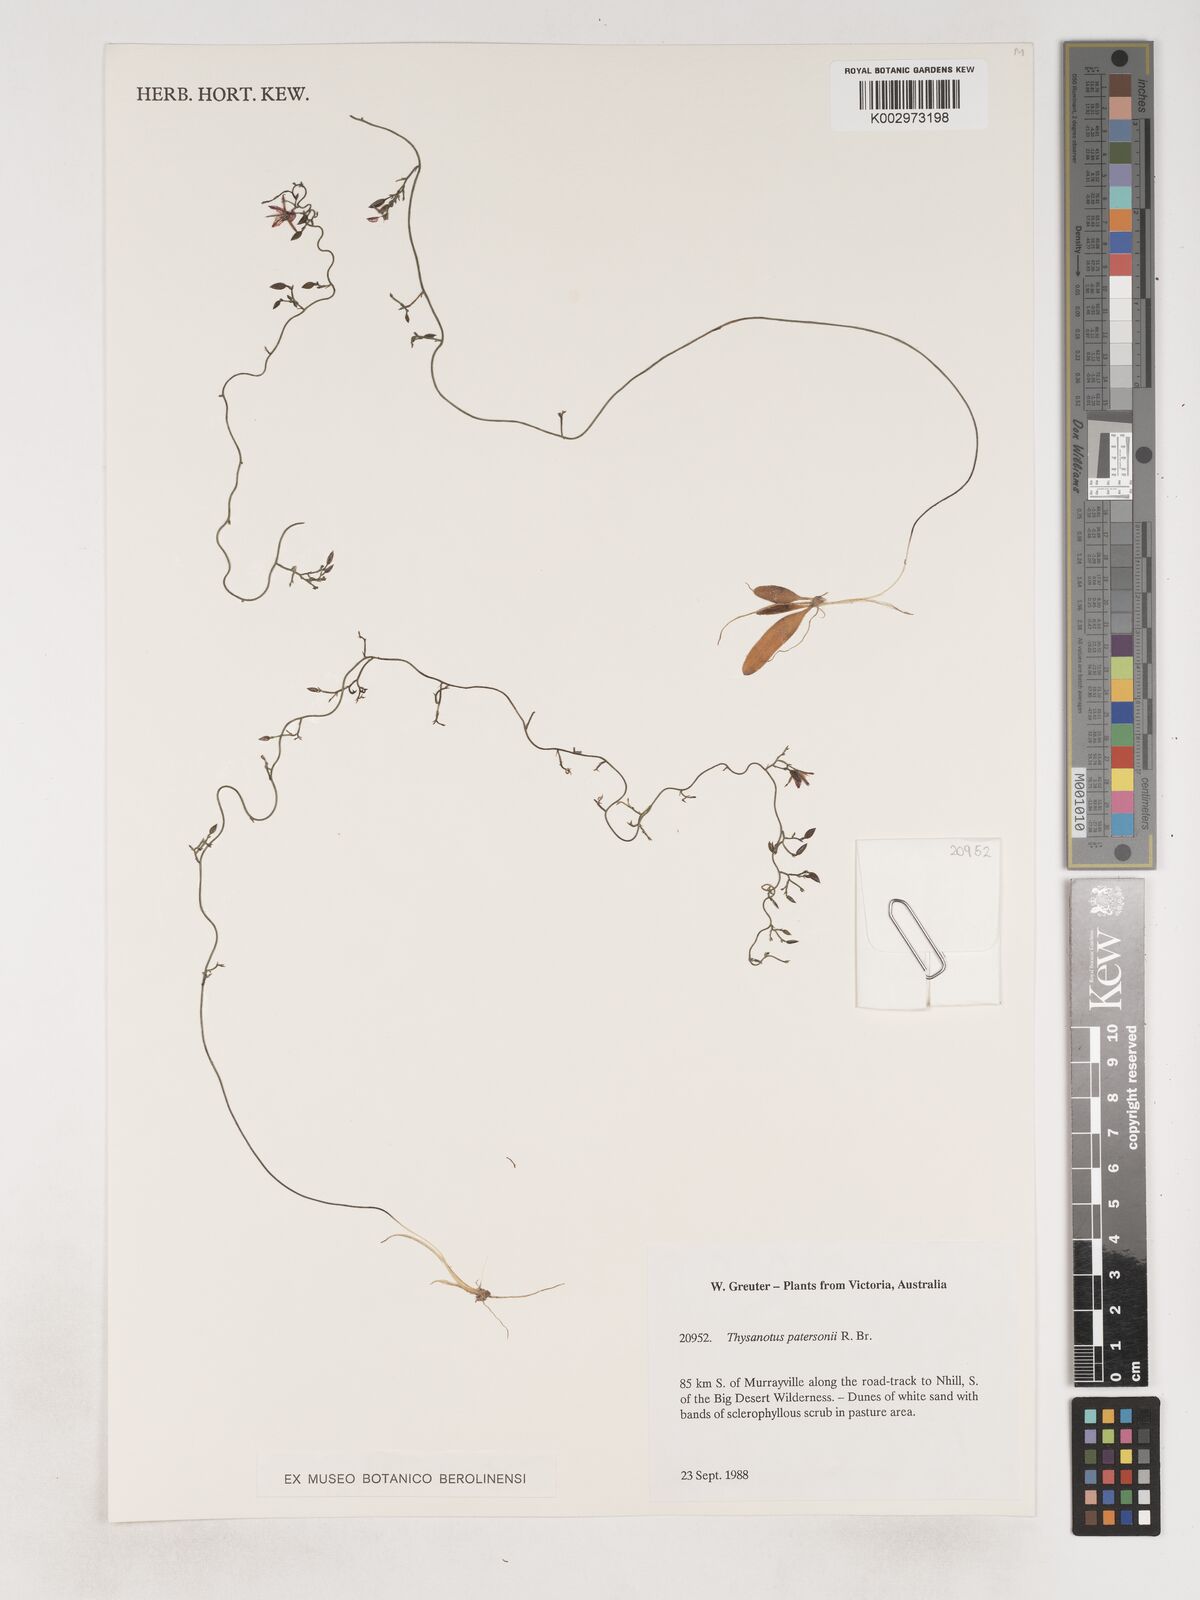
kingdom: Plantae
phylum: Tracheophyta
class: Liliopsida
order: Asparagales
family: Asparagaceae
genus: Thysanotus
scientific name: Thysanotus patersonii
